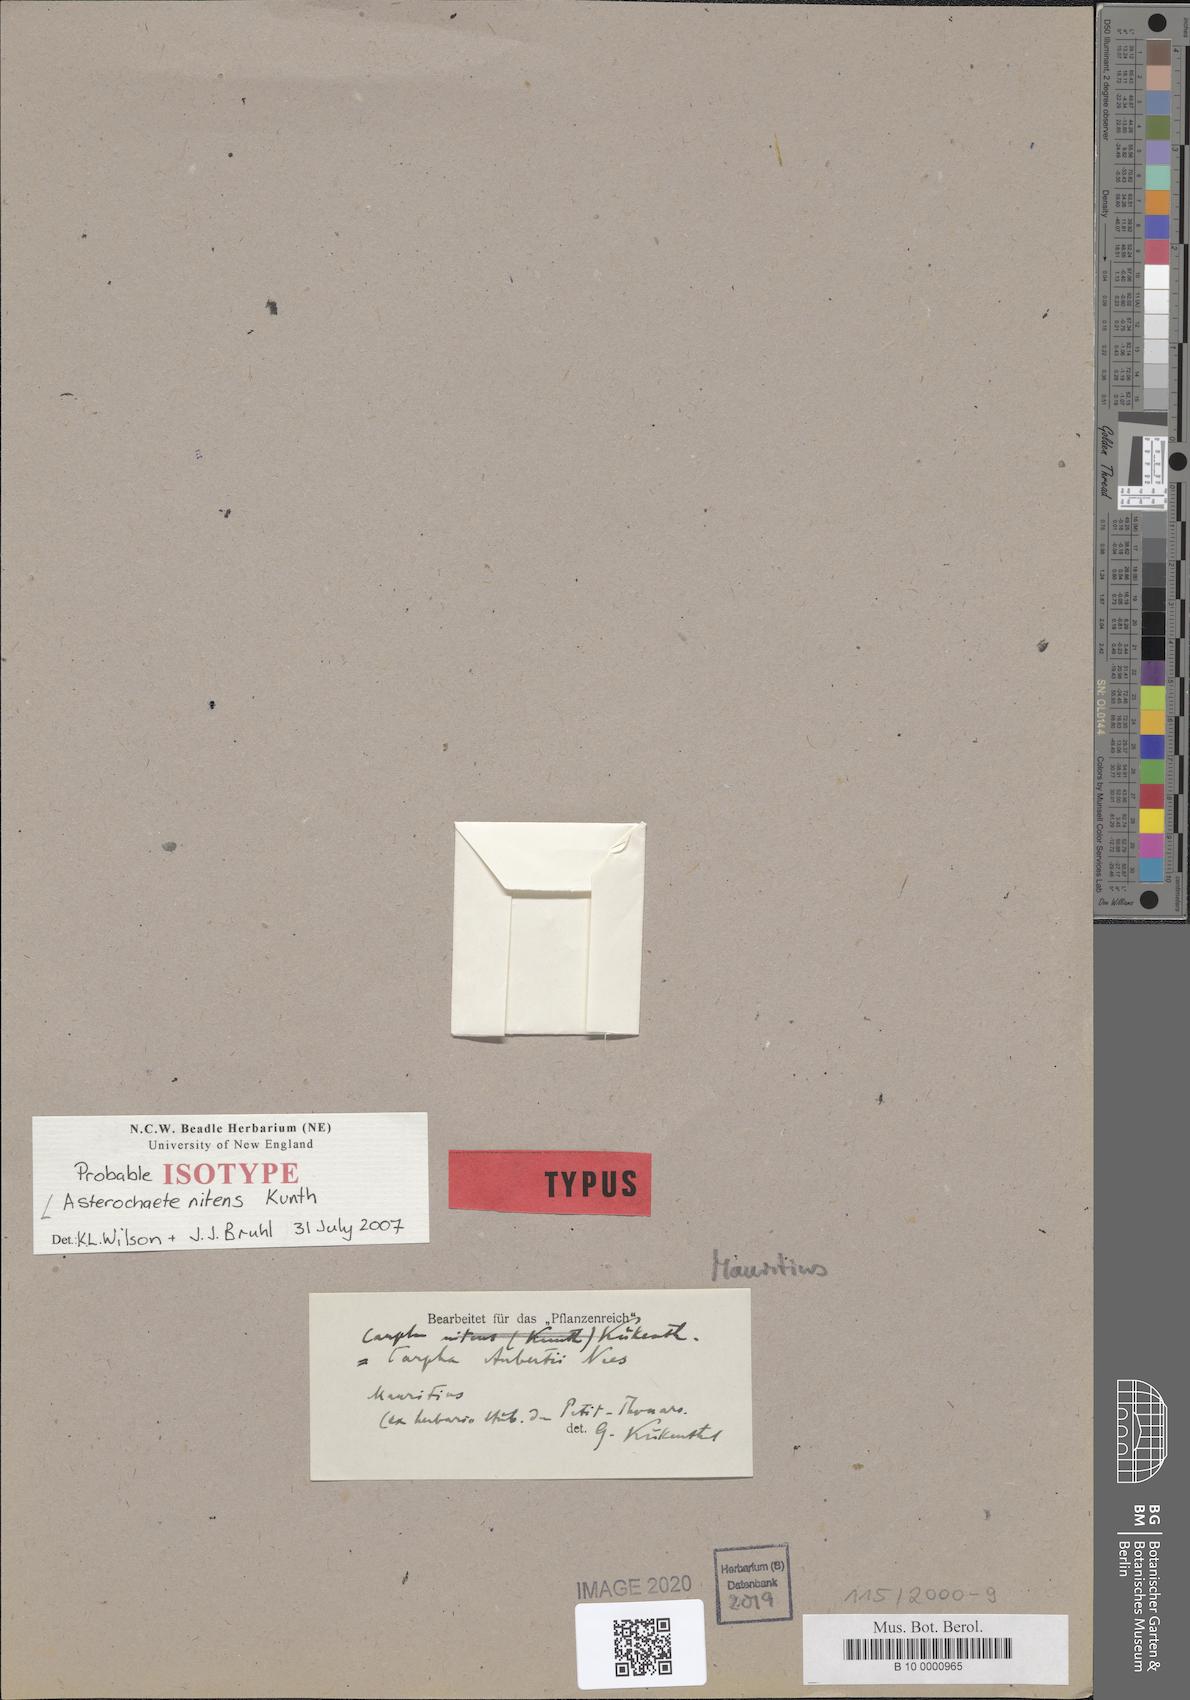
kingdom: Plantae
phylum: Tracheophyta
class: Liliopsida
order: Poales
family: Cyperaceae
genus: Carpha
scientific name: Carpha nitens
